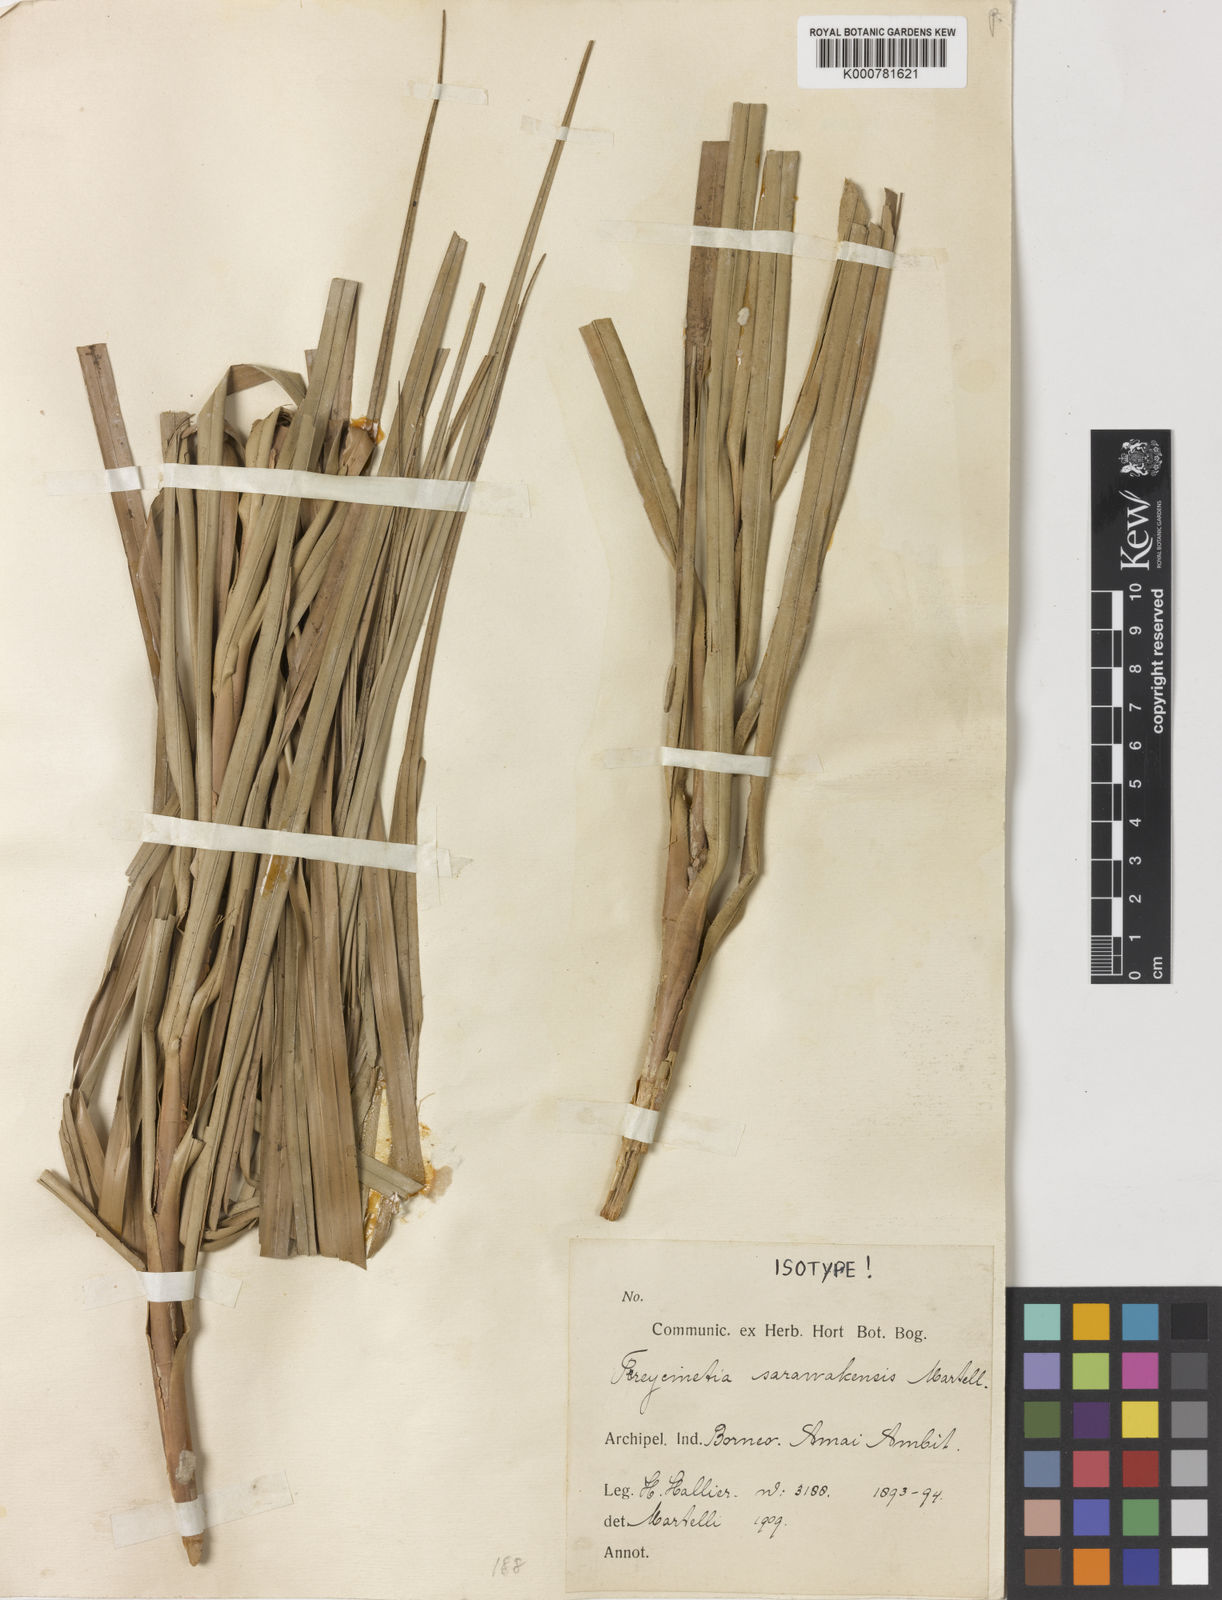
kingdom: Plantae
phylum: Tracheophyta
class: Liliopsida
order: Pandanales
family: Pandanaceae
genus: Freycinetia
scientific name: Freycinetia sarawakensis
